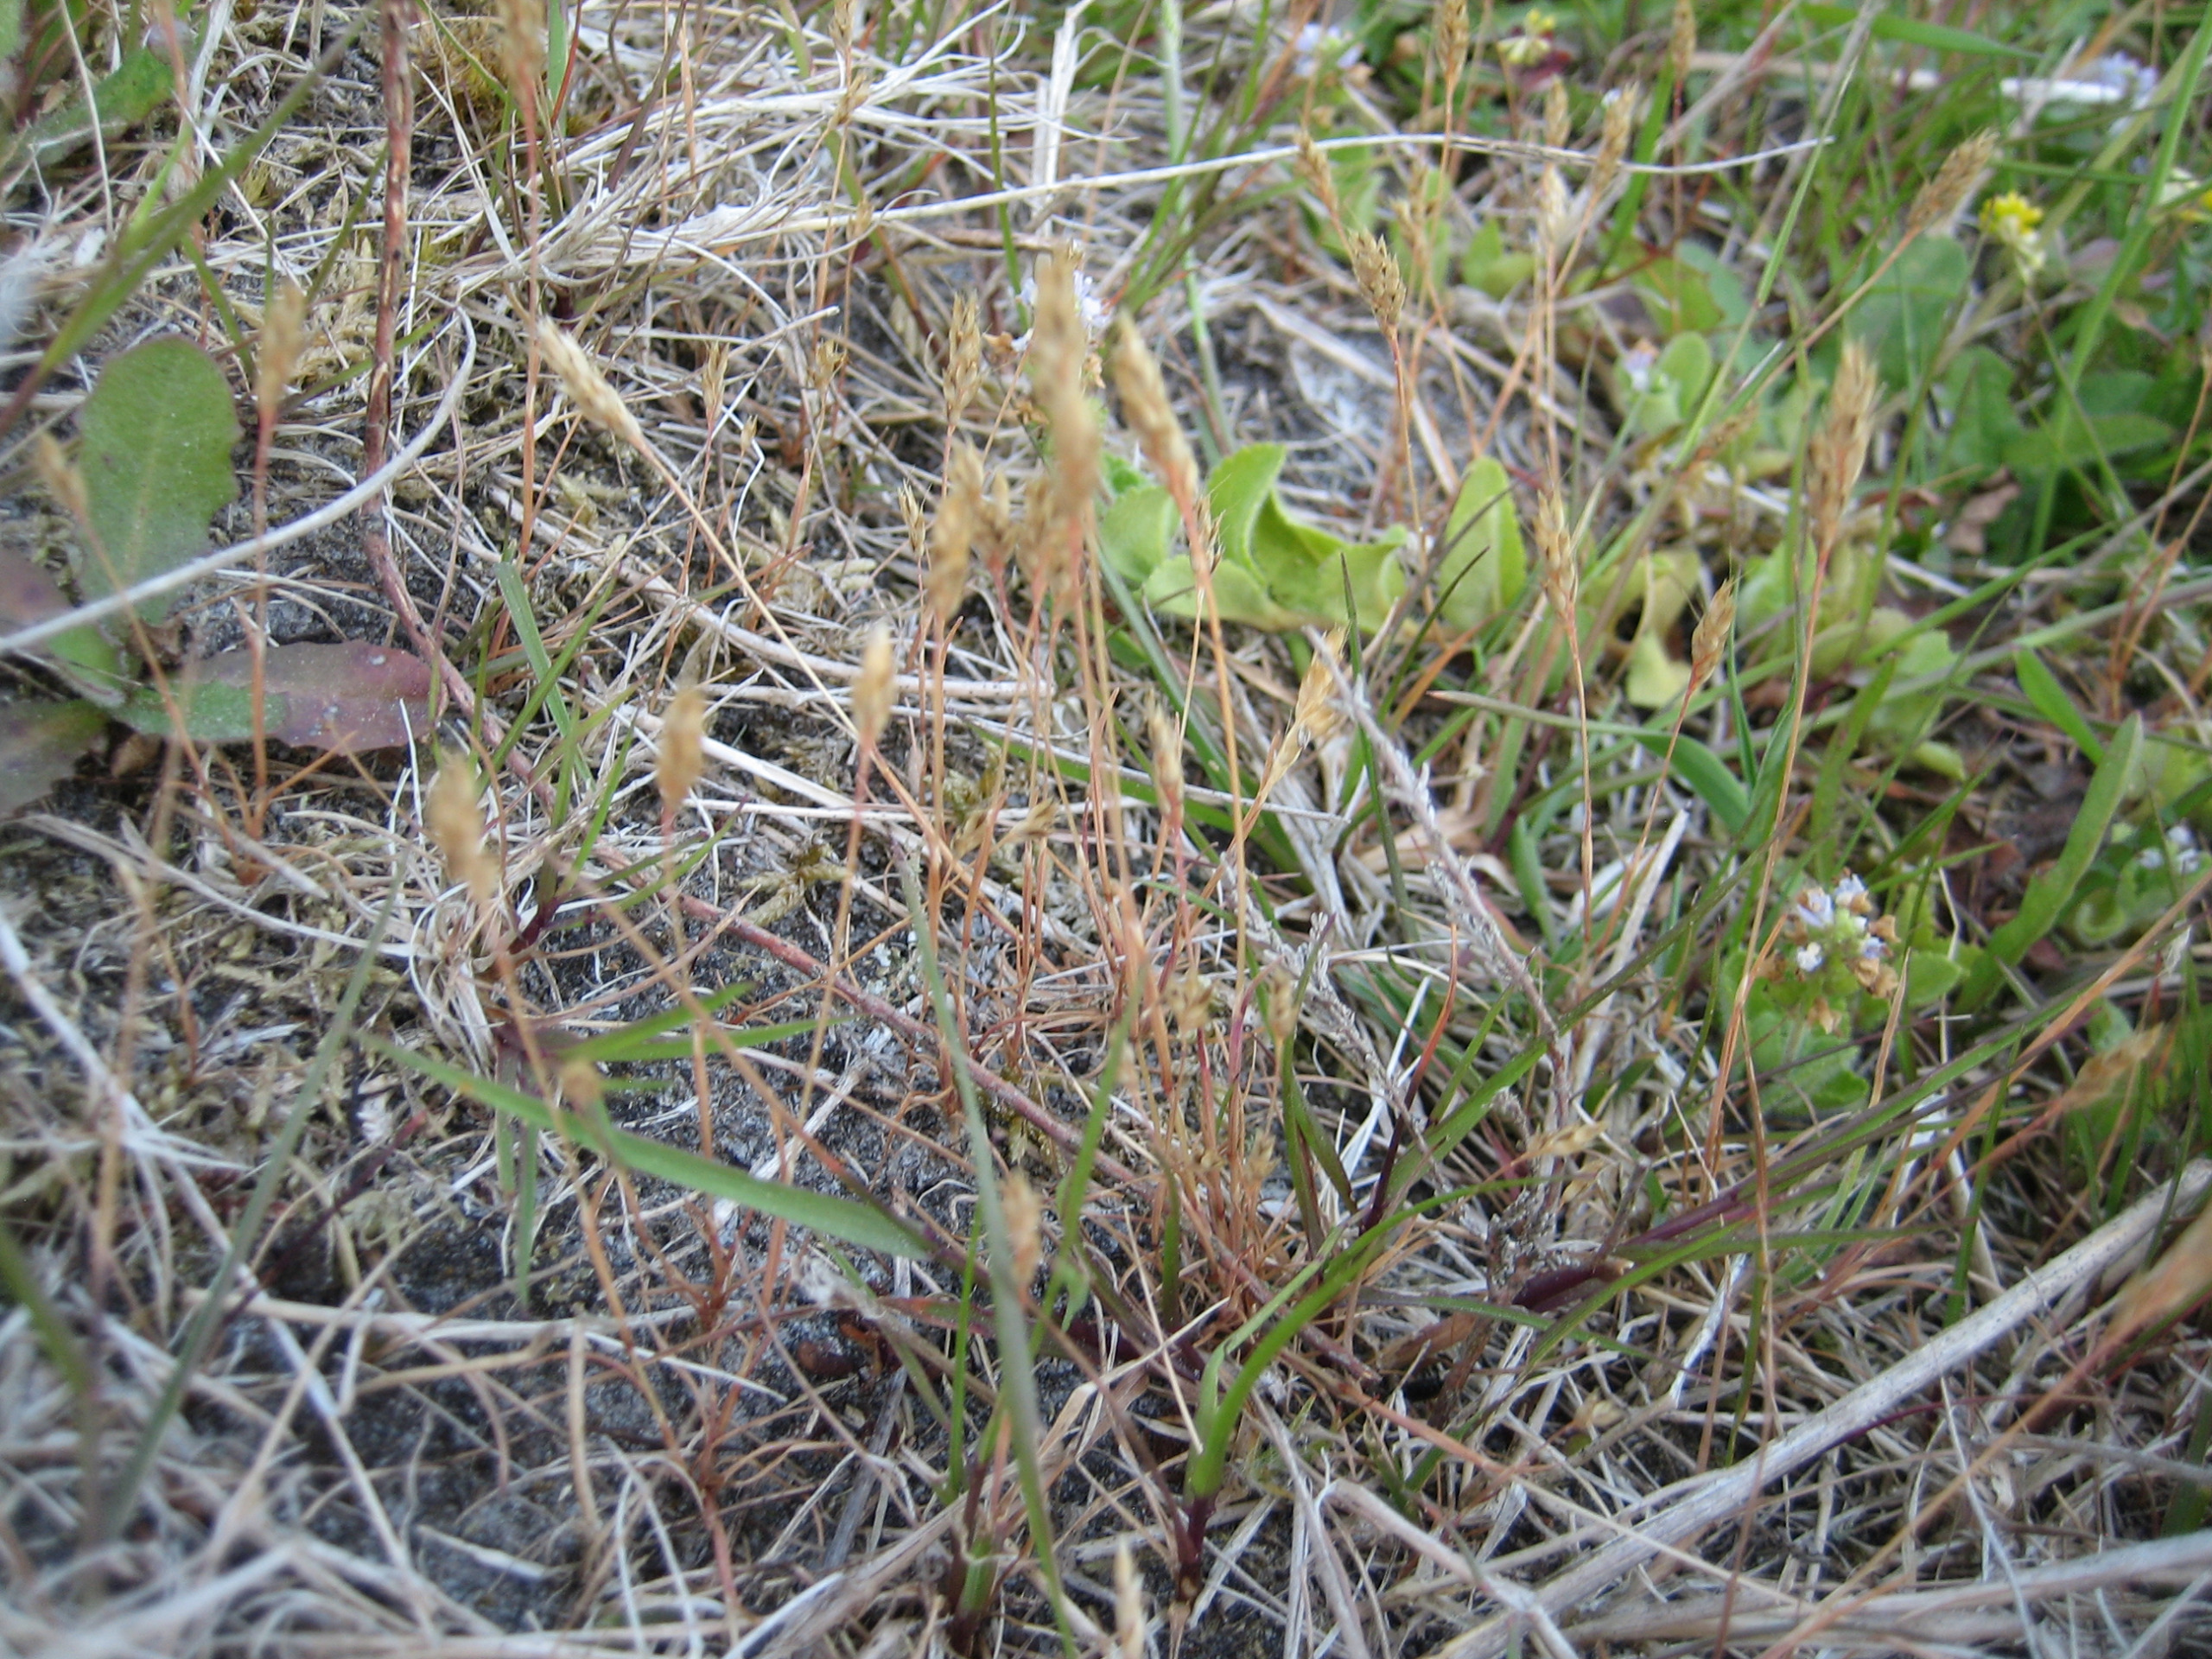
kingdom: Plantae
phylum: Tracheophyta
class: Liliopsida
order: Poales
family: Poaceae
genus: Aira
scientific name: Aira praecox
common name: Tidlig dværgbunke
